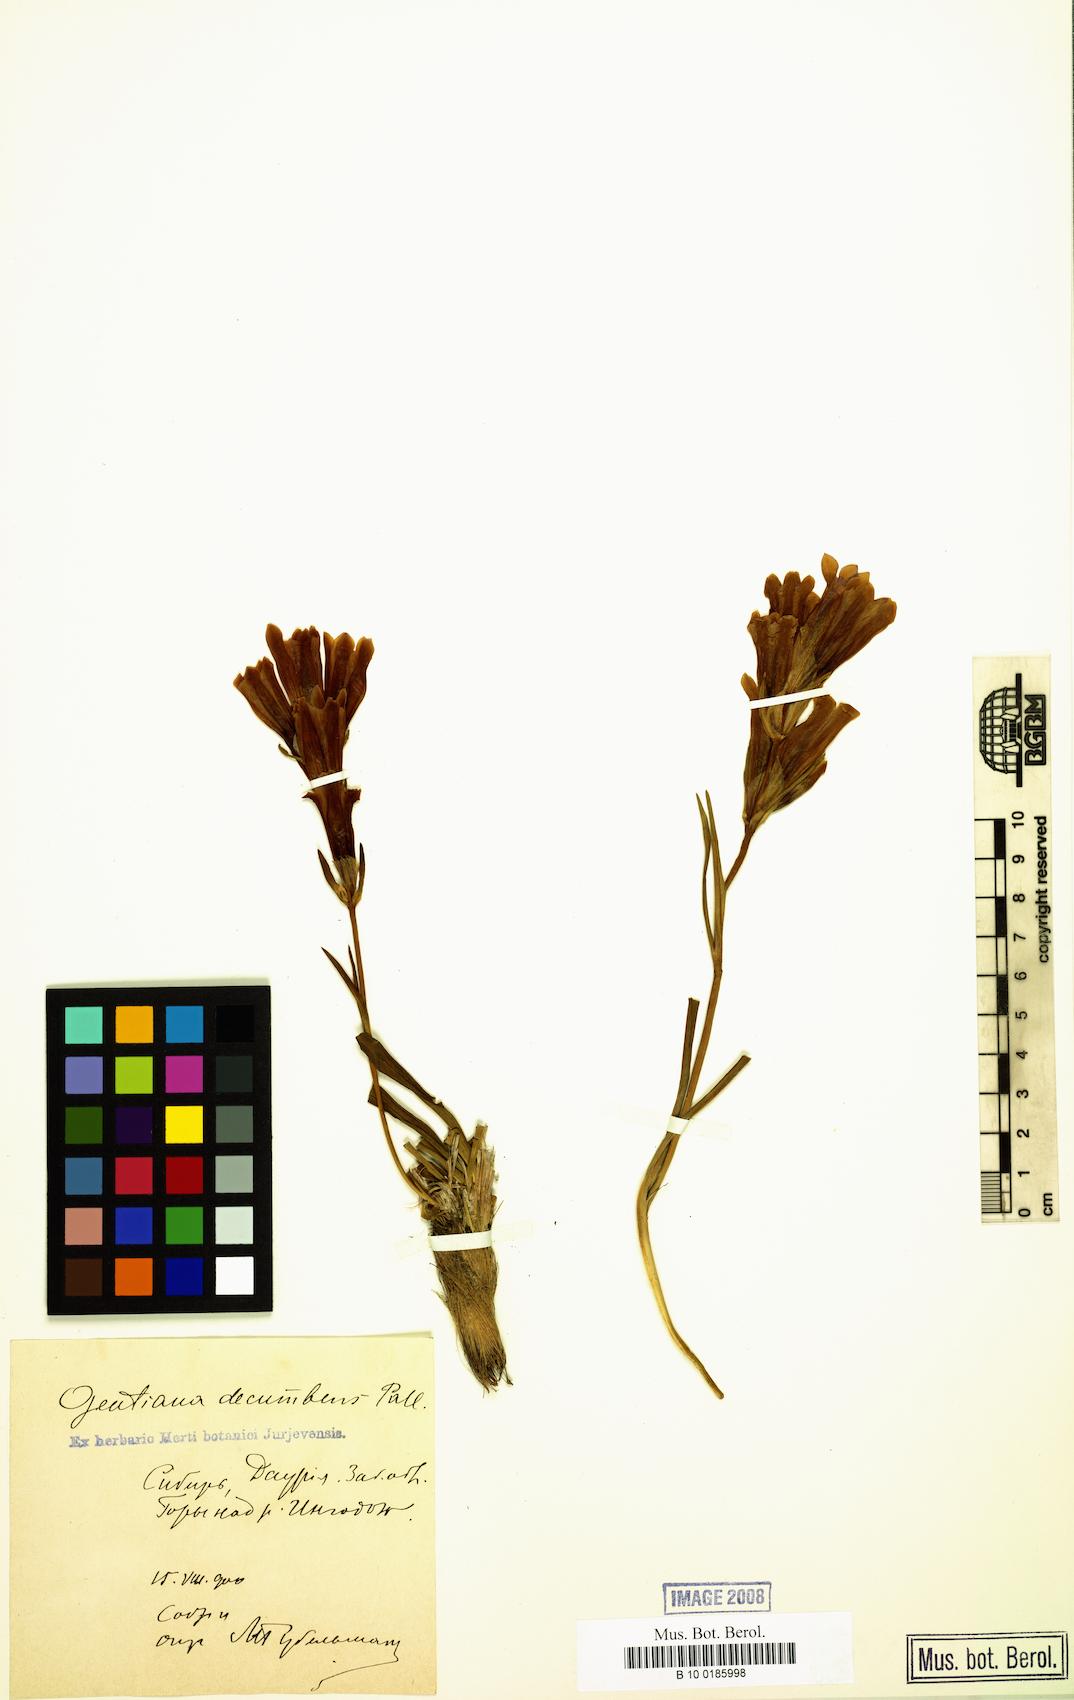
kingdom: Plantae
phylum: Tracheophyta
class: Magnoliopsida
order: Gentianales
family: Gentianaceae
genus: Gentiana
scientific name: Gentiana decumbens
